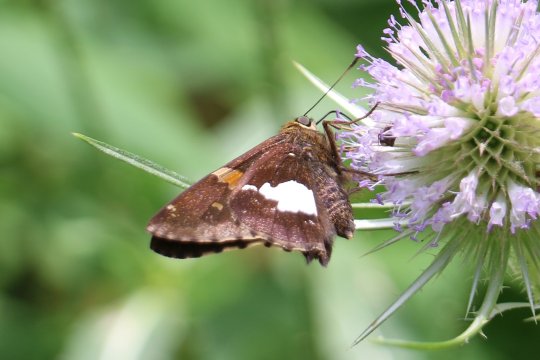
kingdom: Animalia
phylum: Arthropoda
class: Insecta
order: Lepidoptera
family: Hesperiidae
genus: Epargyreus
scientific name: Epargyreus clarus
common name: Silver-spotted Skipper
